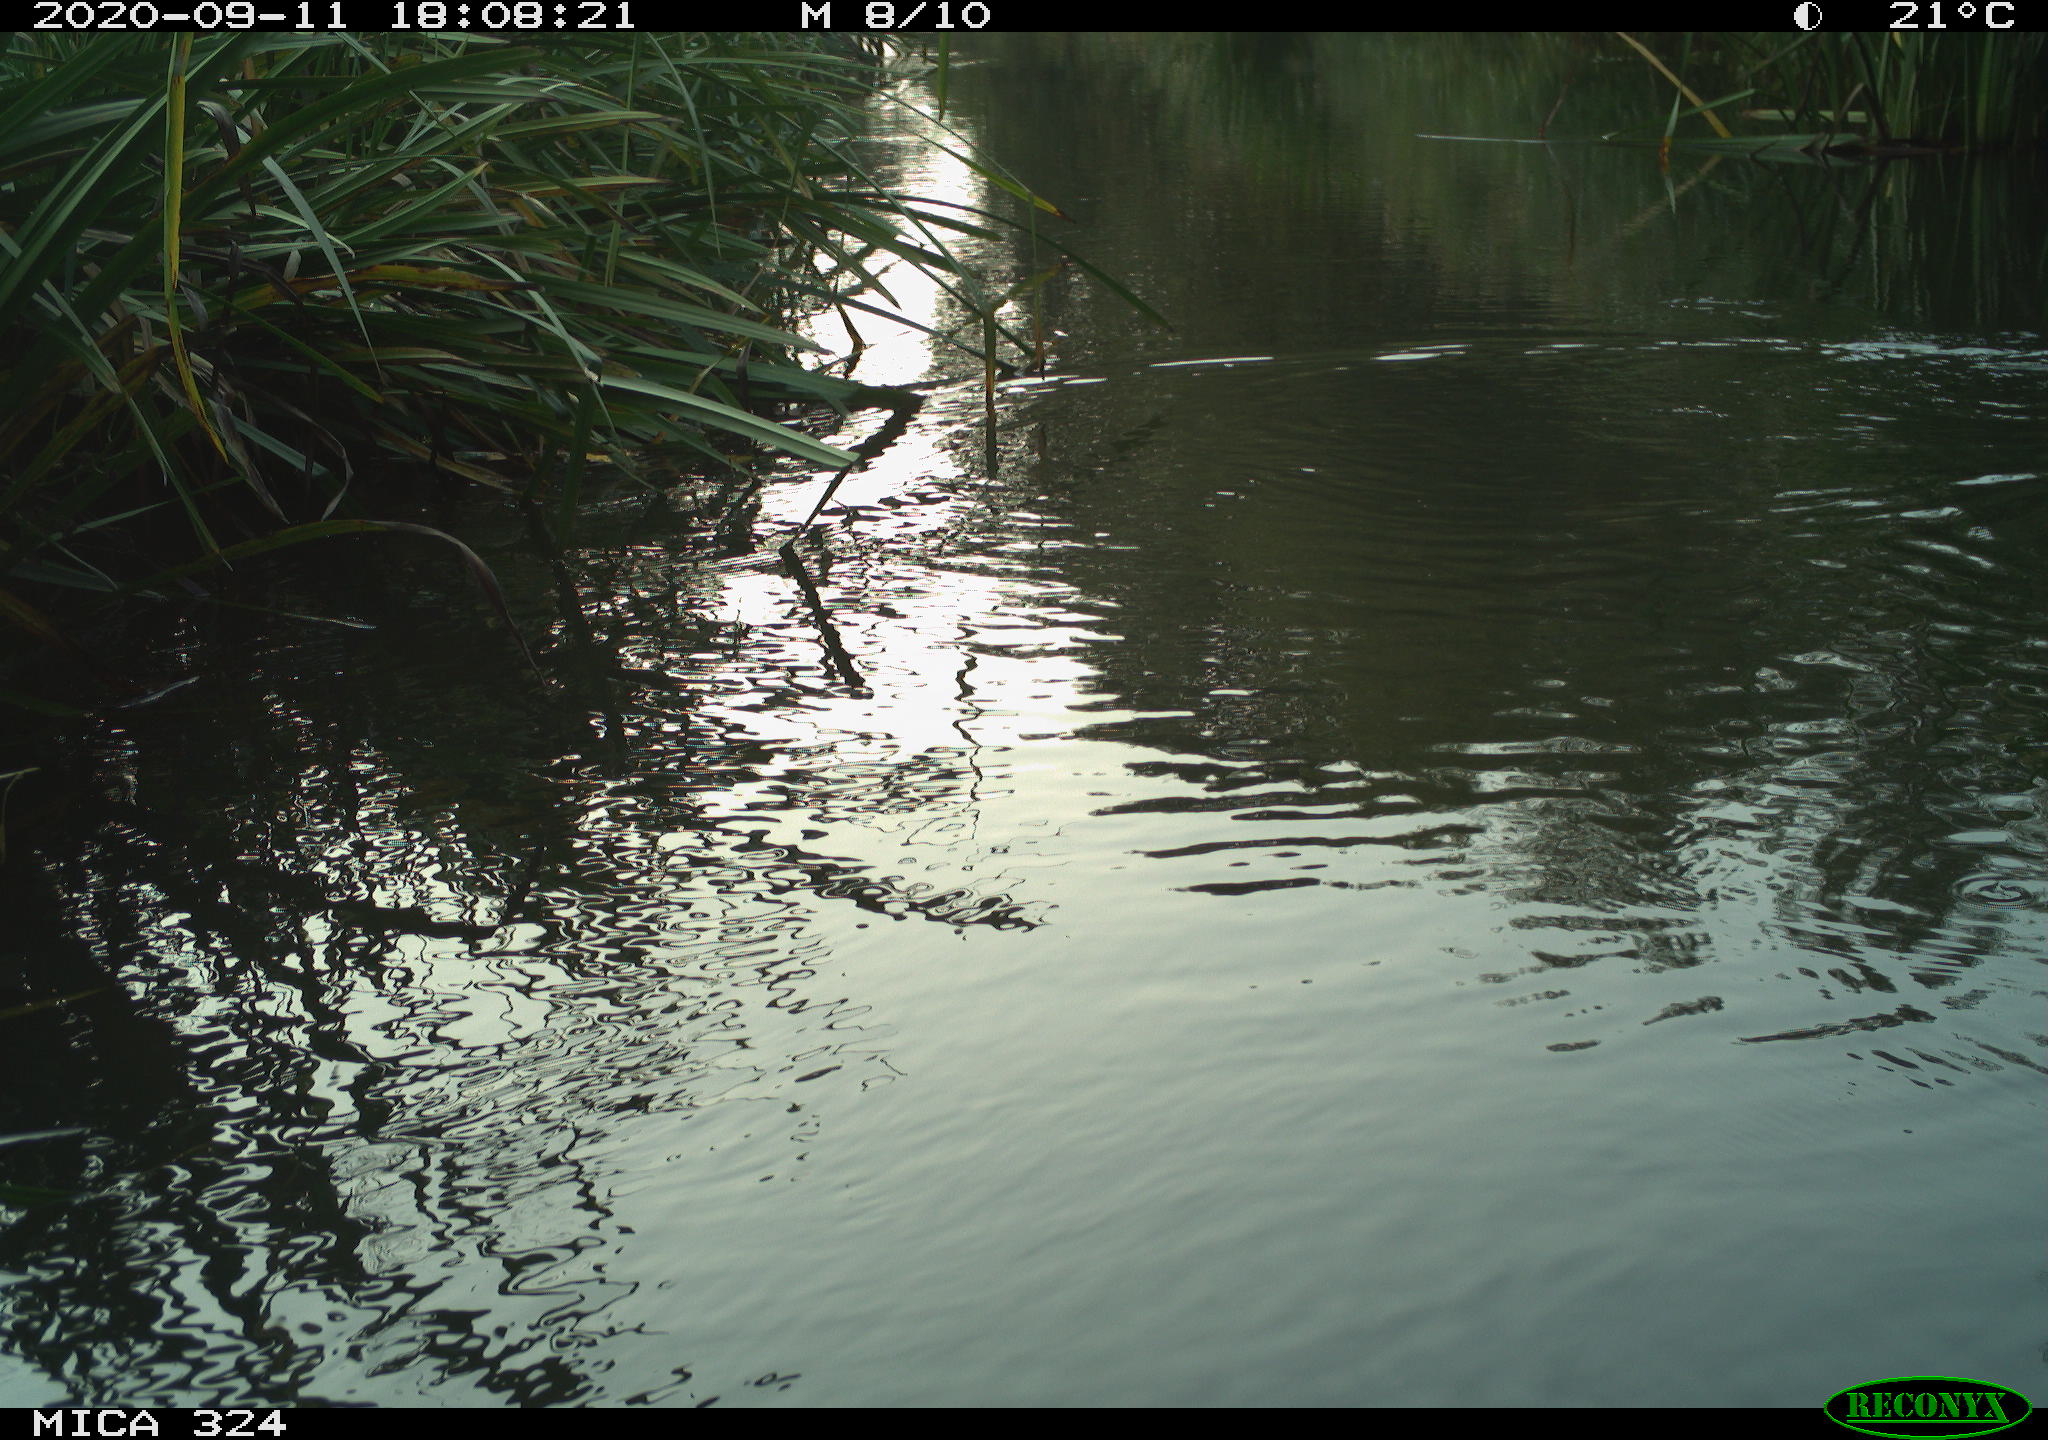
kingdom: Animalia
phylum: Chordata
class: Mammalia
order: Rodentia
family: Cricetidae
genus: Ondatra
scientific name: Ondatra zibethicus
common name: Muskrat
